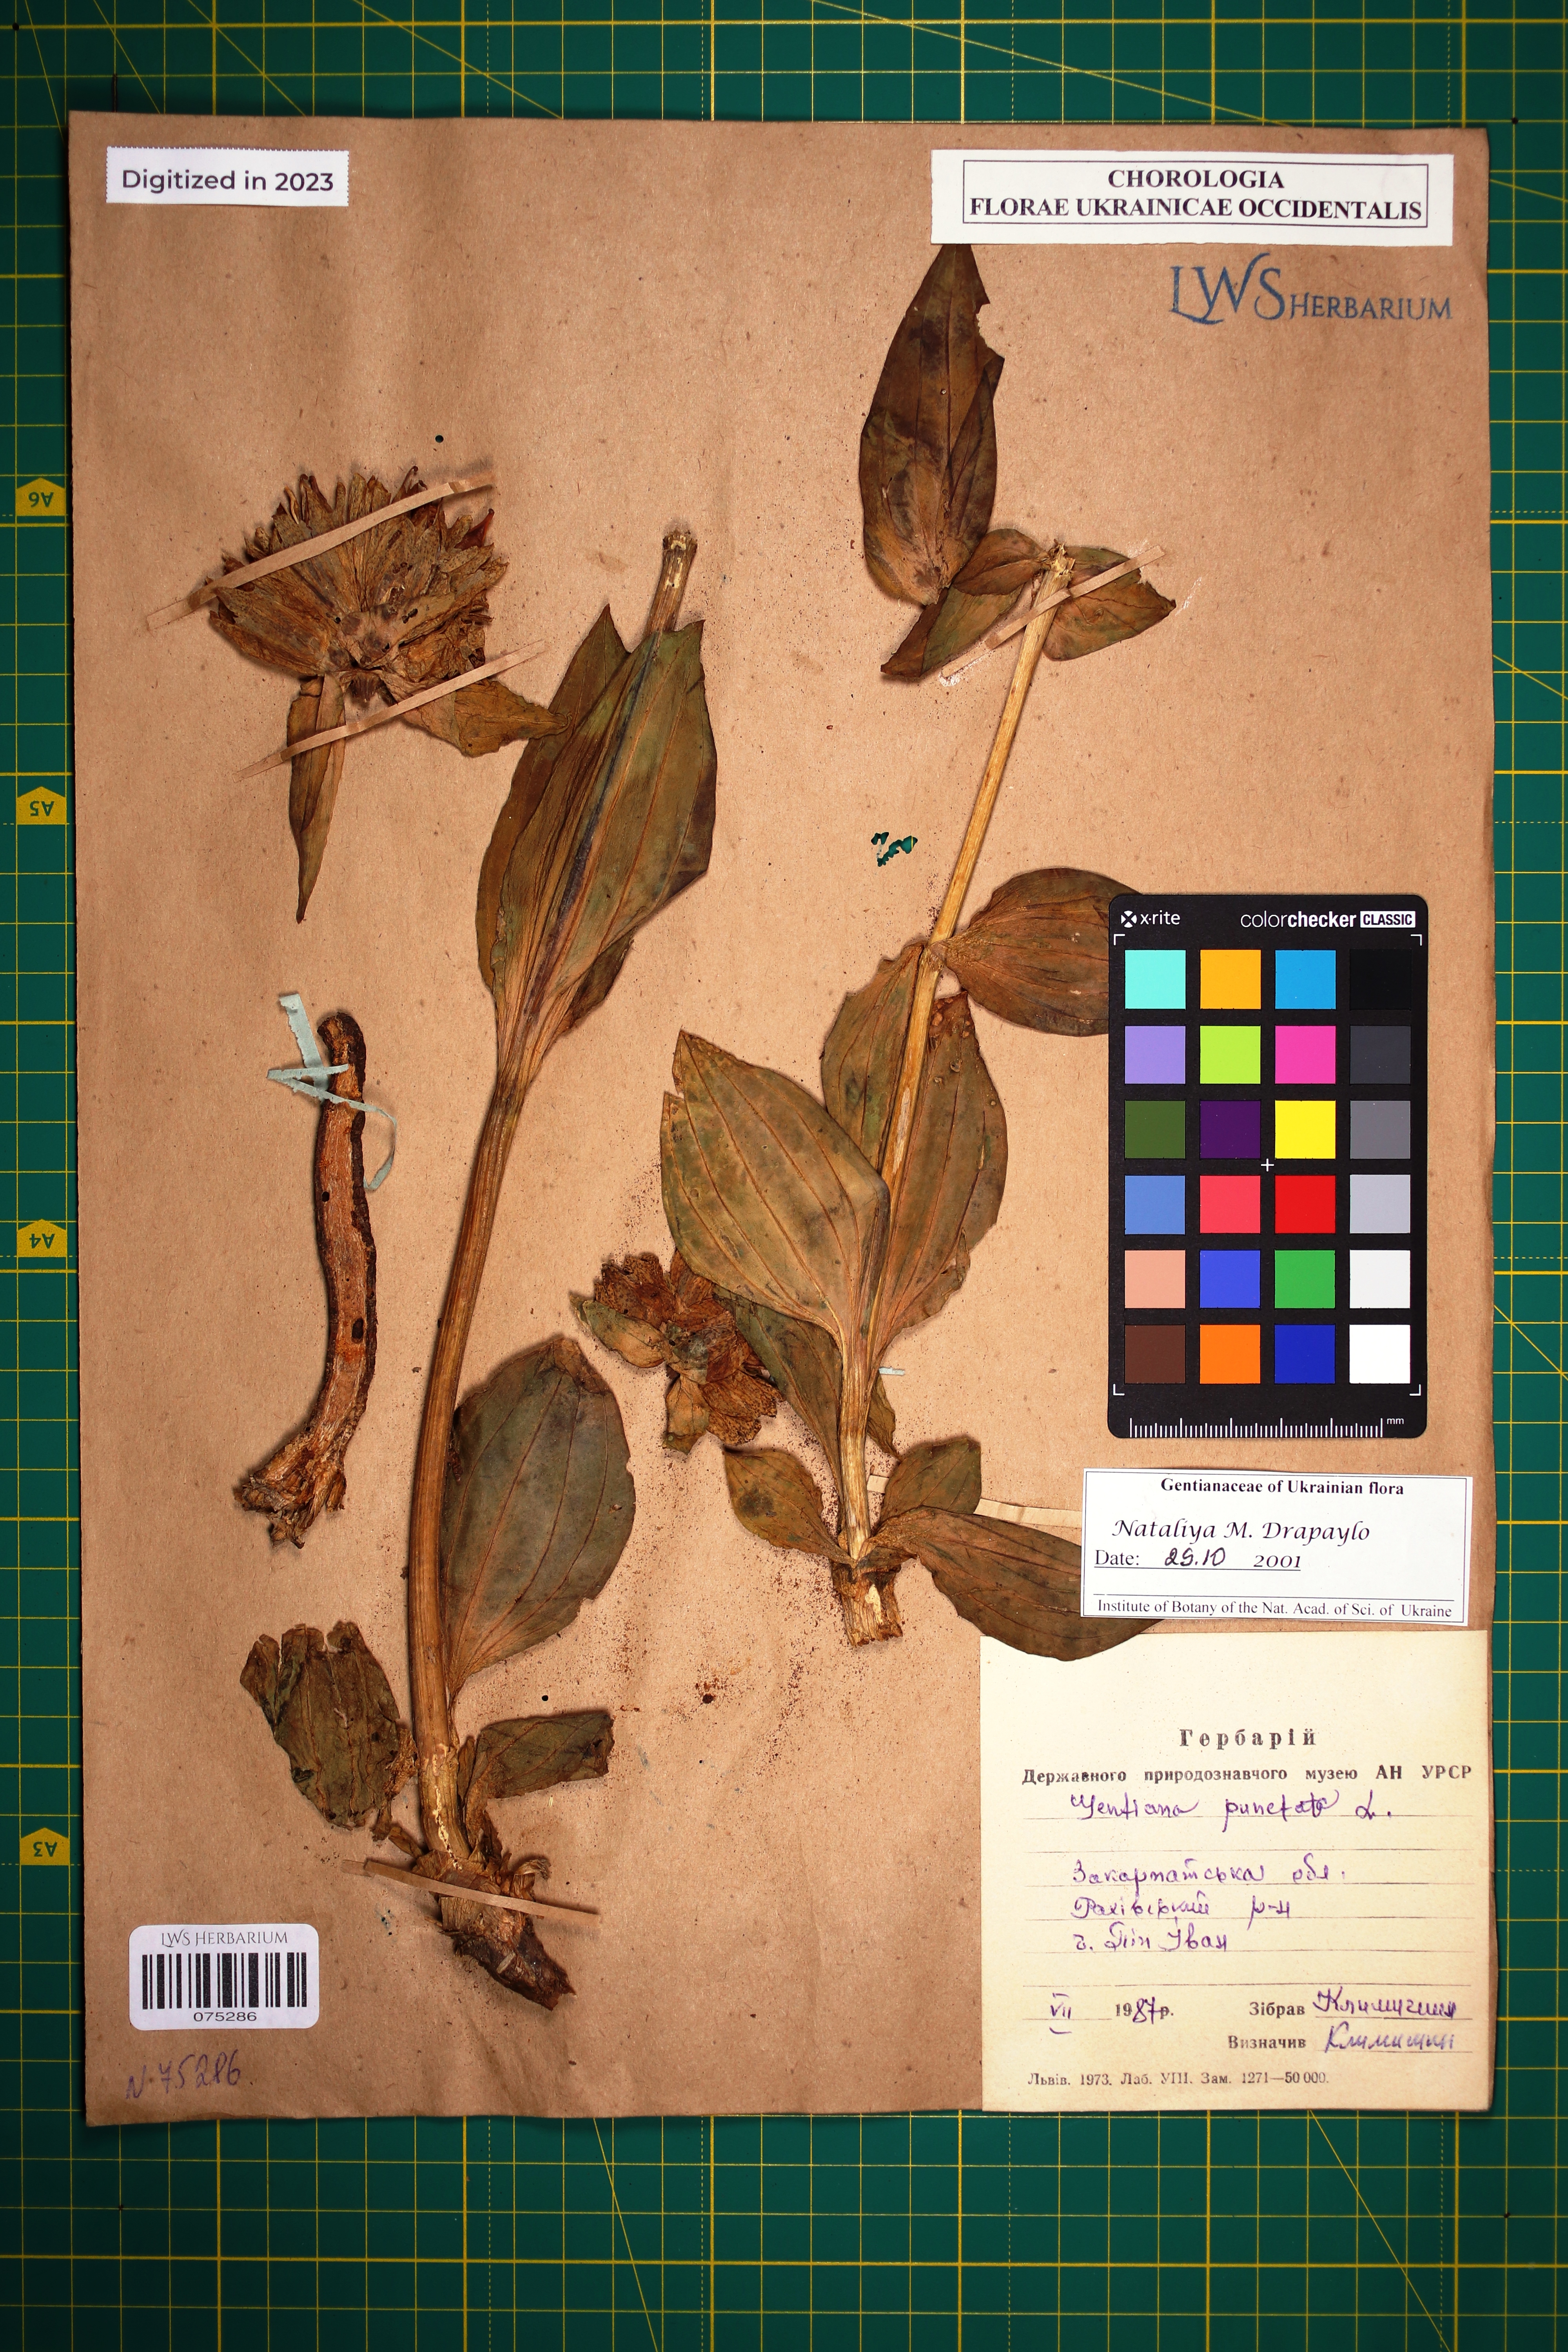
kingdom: Plantae
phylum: Tracheophyta
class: Magnoliopsida
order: Gentianales
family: Gentianaceae
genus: Gentiana
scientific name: Gentiana punctata
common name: Spotted gentian
